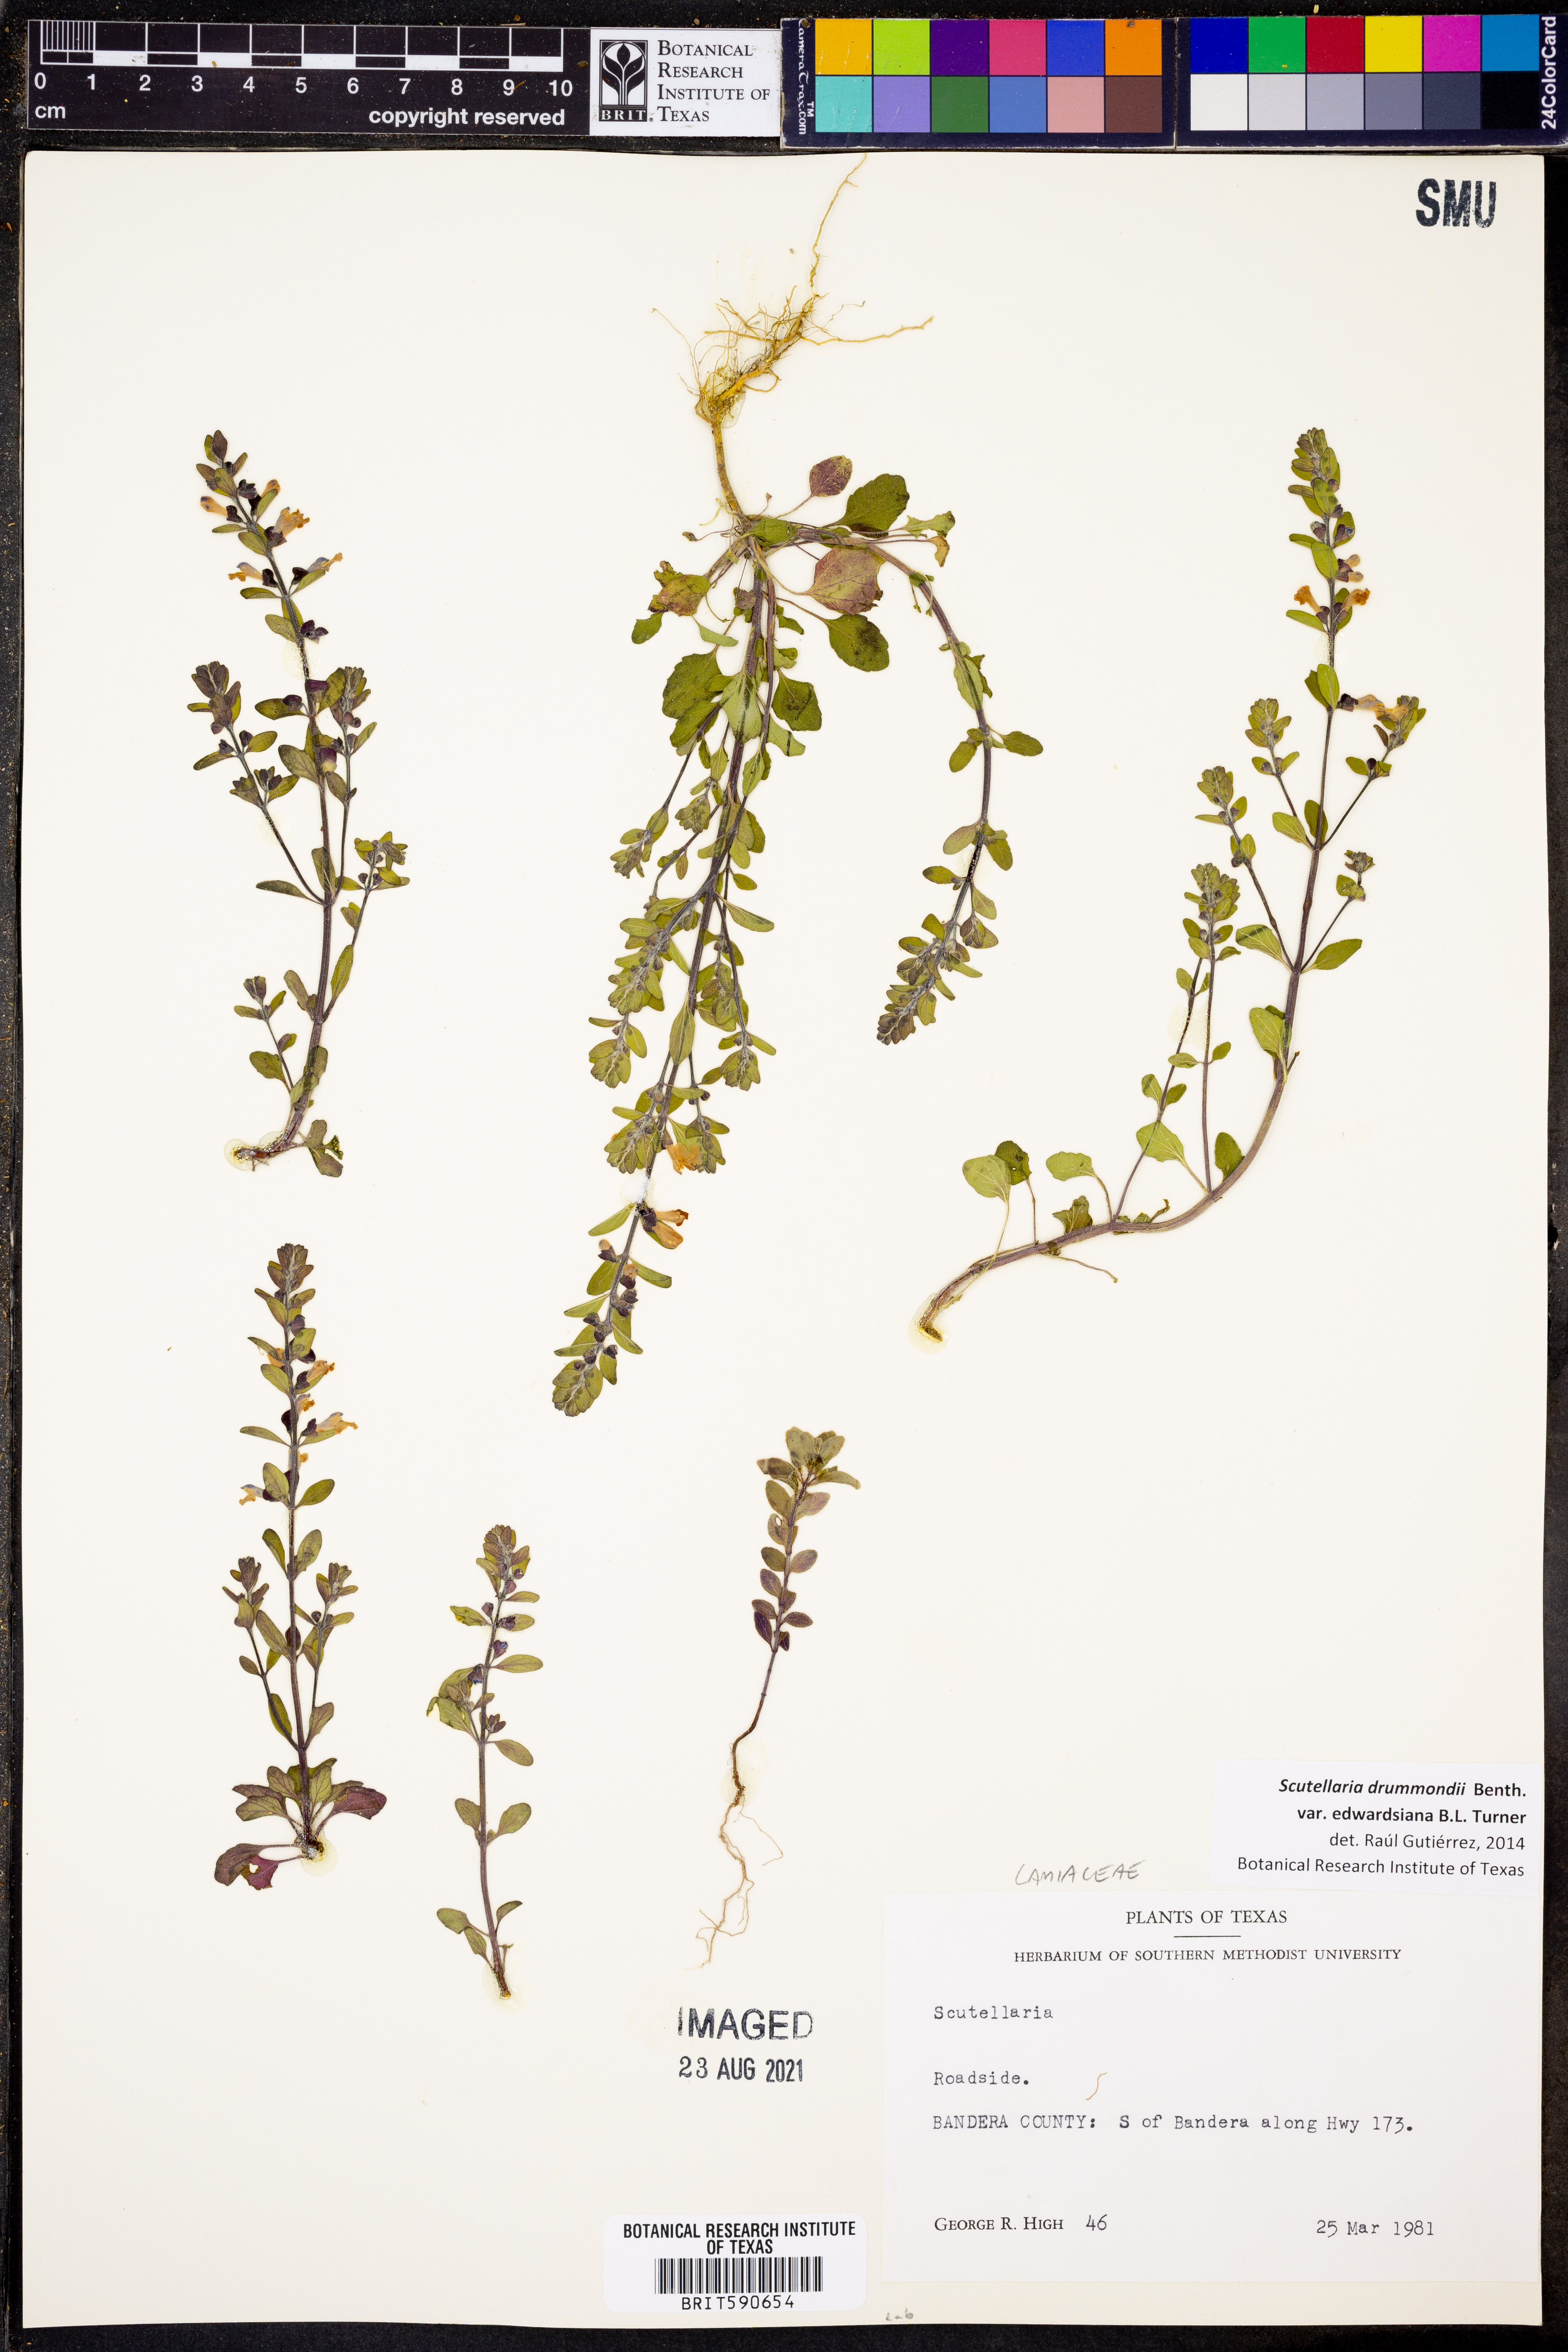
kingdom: Plantae
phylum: Tracheophyta
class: Magnoliopsida
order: Lamiales
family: Lamiaceae
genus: Scutellaria
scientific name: Scutellaria drummondii
